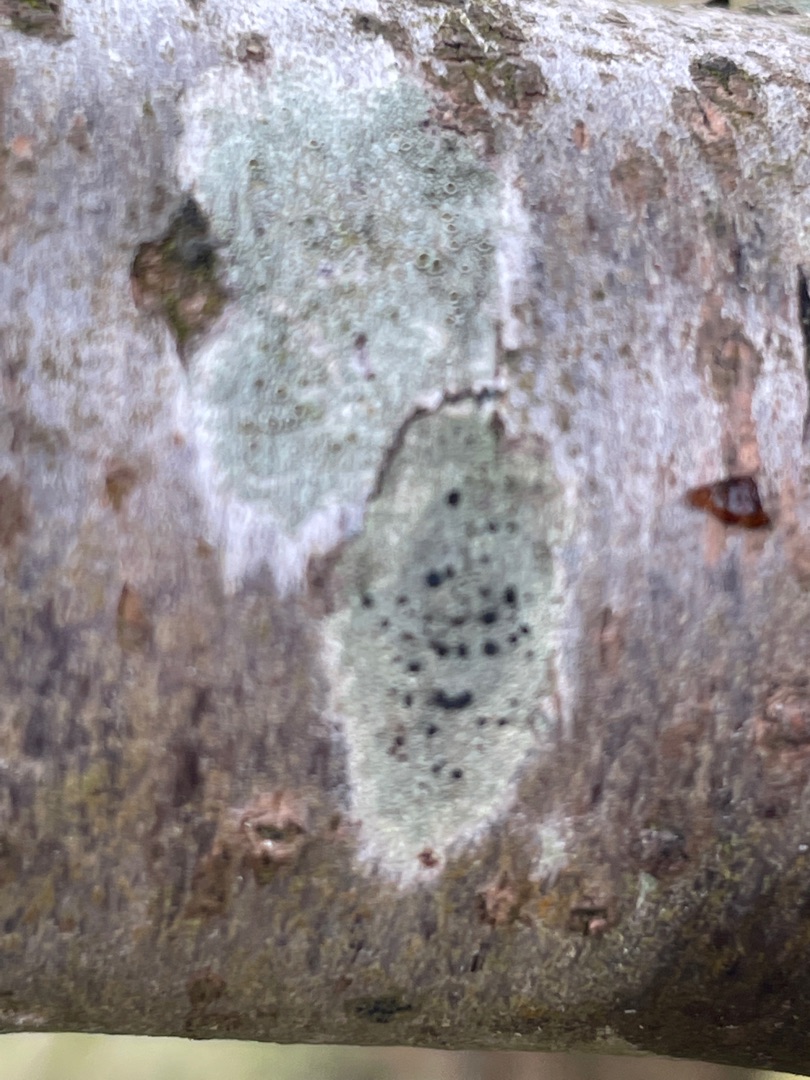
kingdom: Fungi
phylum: Ascomycota
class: Lecanoromycetes
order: Lecanorales
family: Lecanoraceae
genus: Lecidella
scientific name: Lecidella elaeochroma
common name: Grågrøn skivelav
